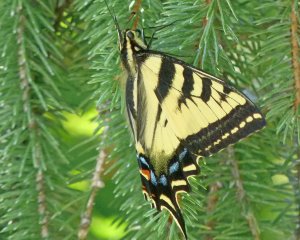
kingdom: Animalia
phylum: Arthropoda
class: Insecta
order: Lepidoptera
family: Papilionidae
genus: Pterourus
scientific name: Pterourus rutulus
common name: Western Tiger Swallowtail
